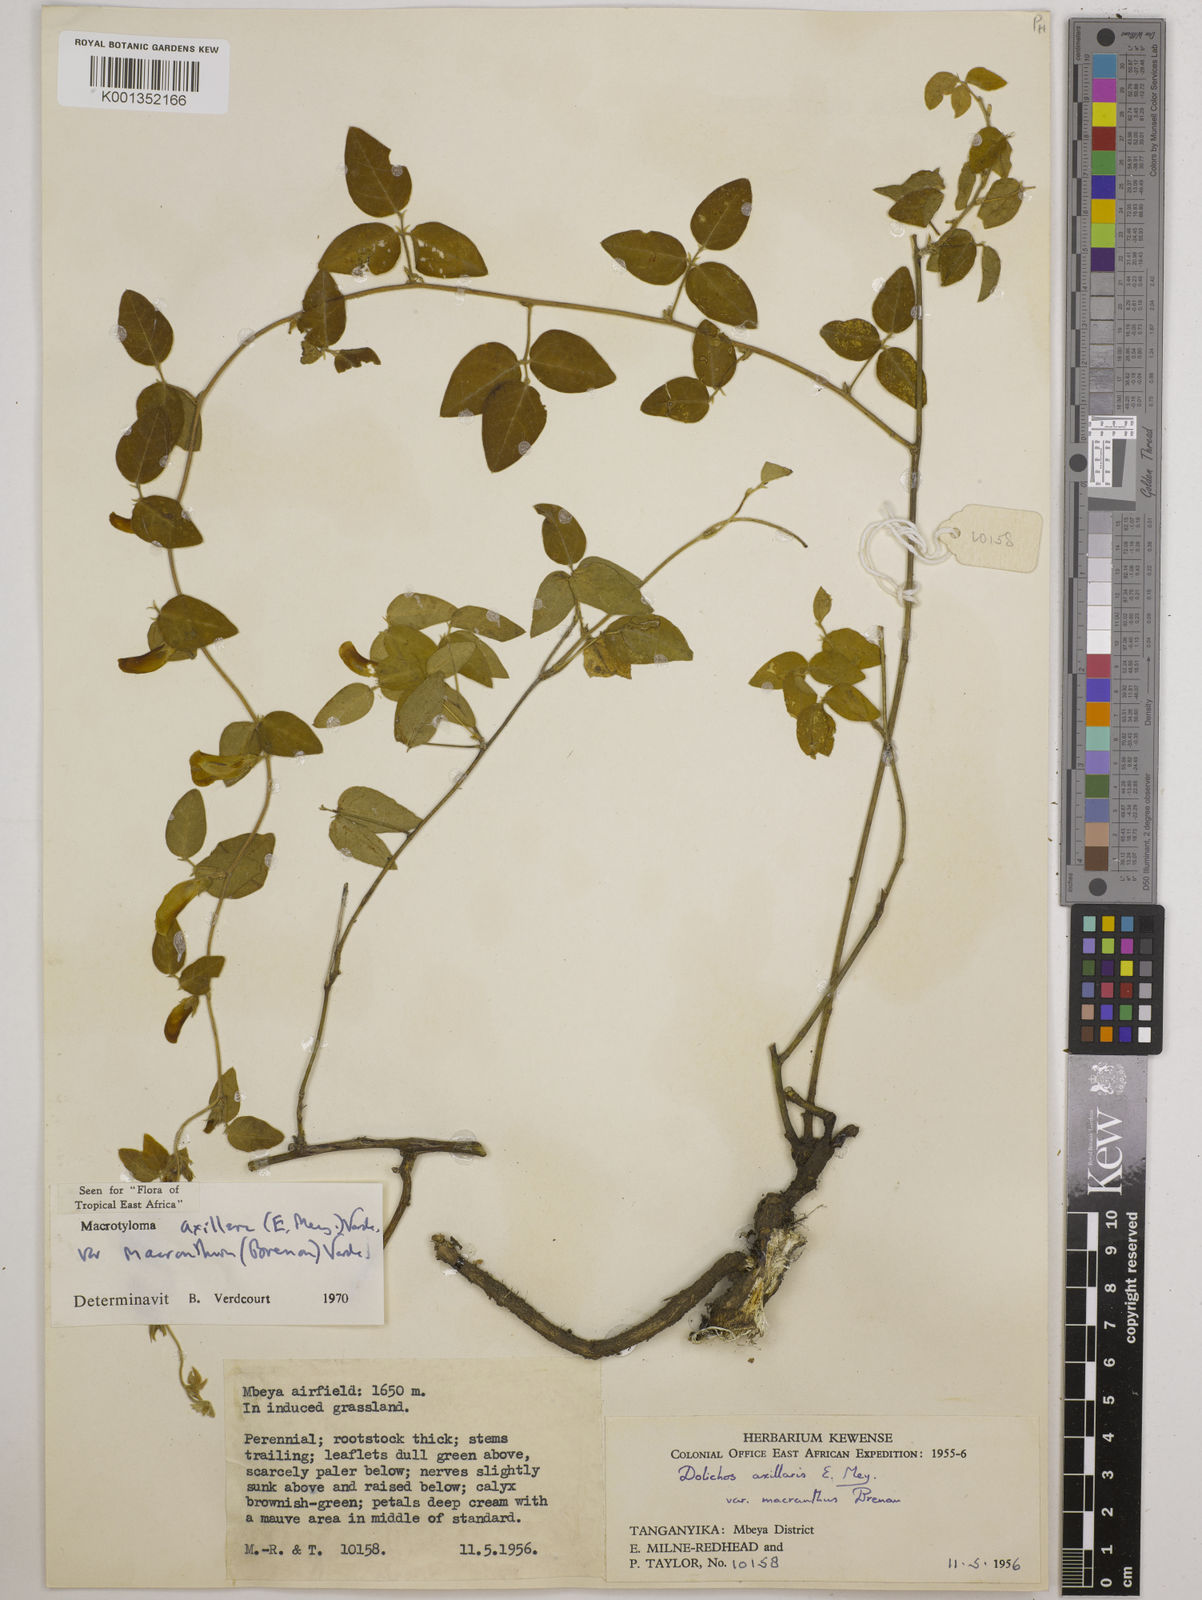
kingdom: Plantae
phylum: Tracheophyta
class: Magnoliopsida
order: Fabales
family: Fabaceae
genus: Macrotyloma
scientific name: Macrotyloma
